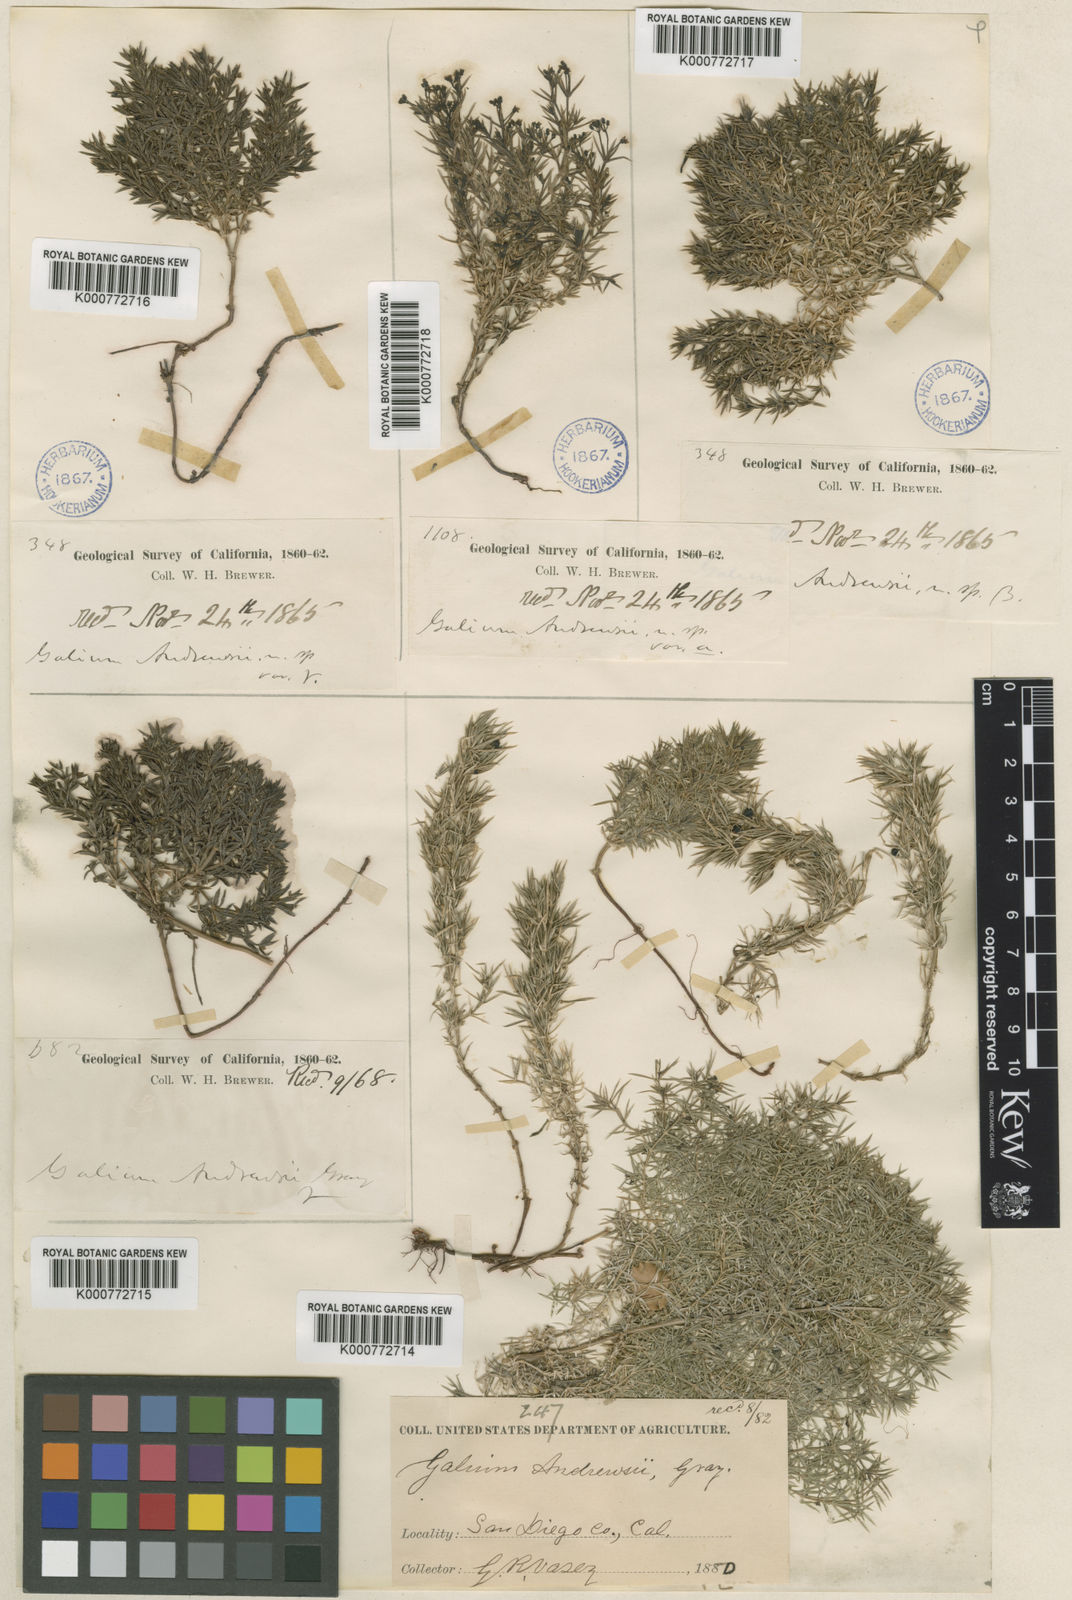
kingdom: Plantae
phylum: Tracheophyta
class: Magnoliopsida
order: Gentianales
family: Rubiaceae
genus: Galium
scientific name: Galium andrewsii
